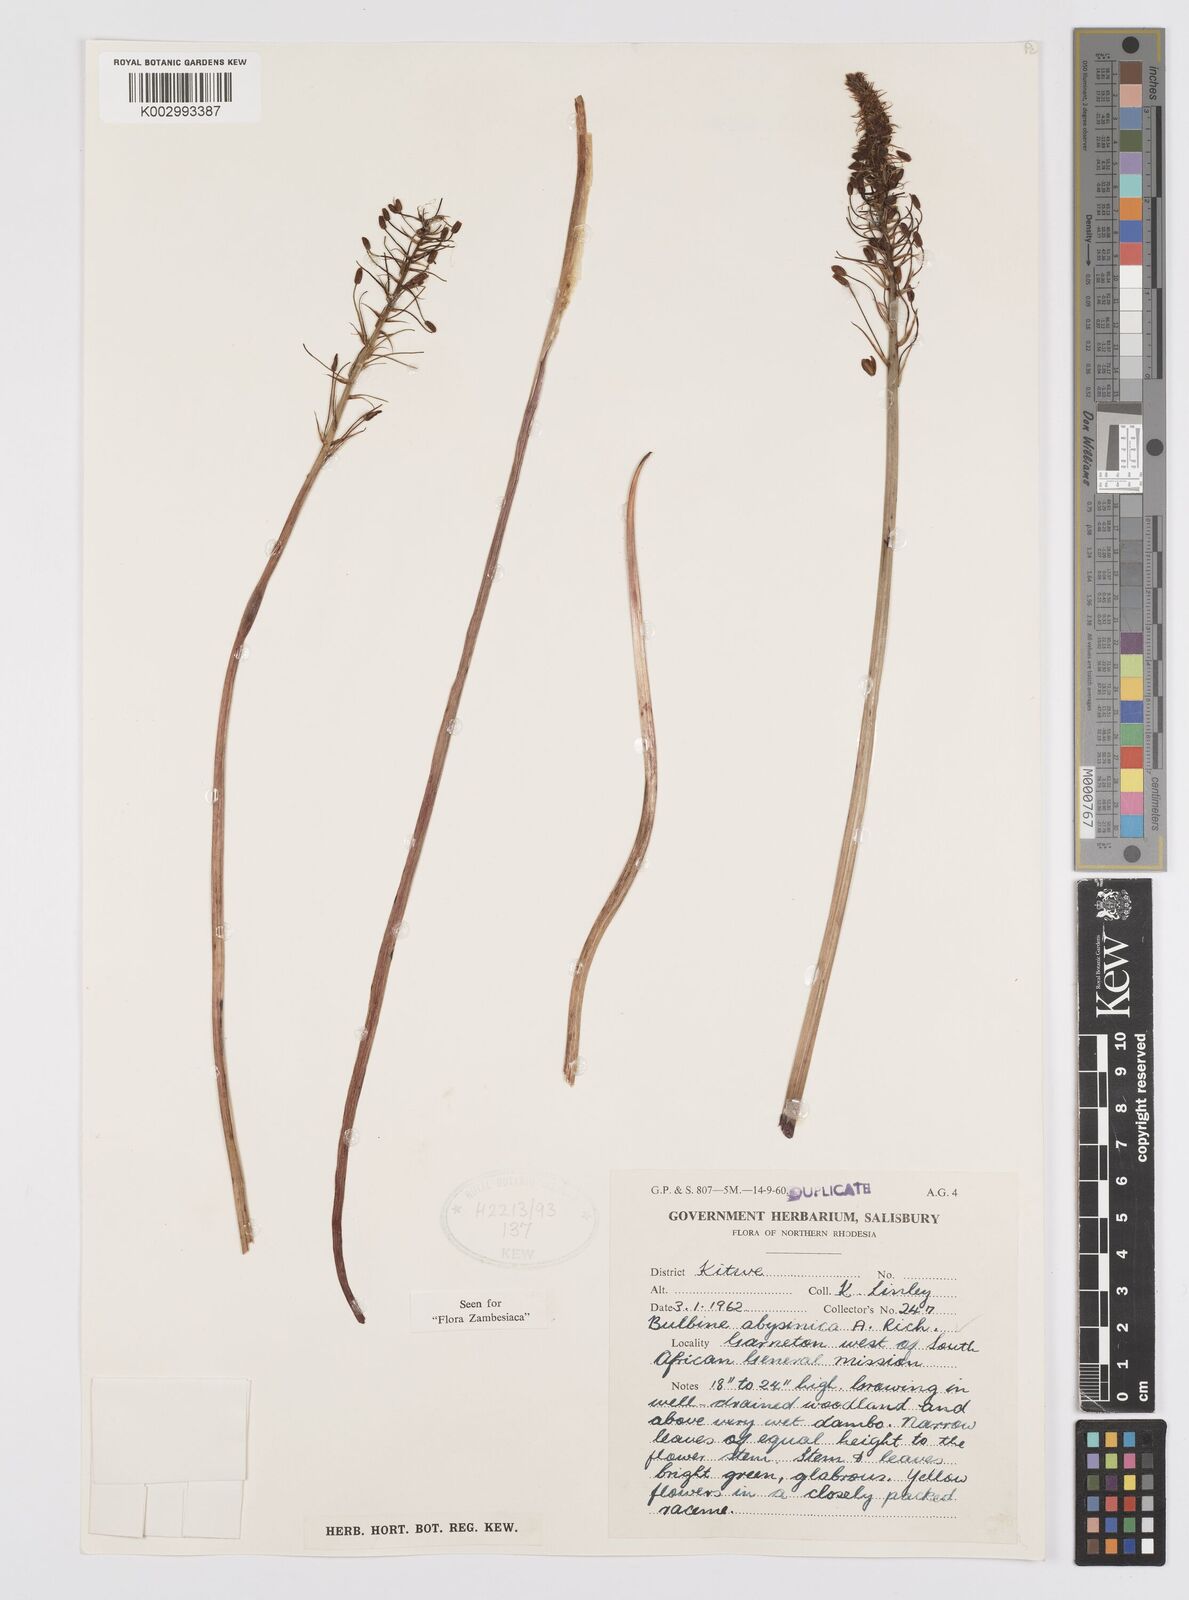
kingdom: Plantae
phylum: Tracheophyta
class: Liliopsida
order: Asparagales
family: Asphodelaceae
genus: Bulbine
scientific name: Bulbine abyssinica
